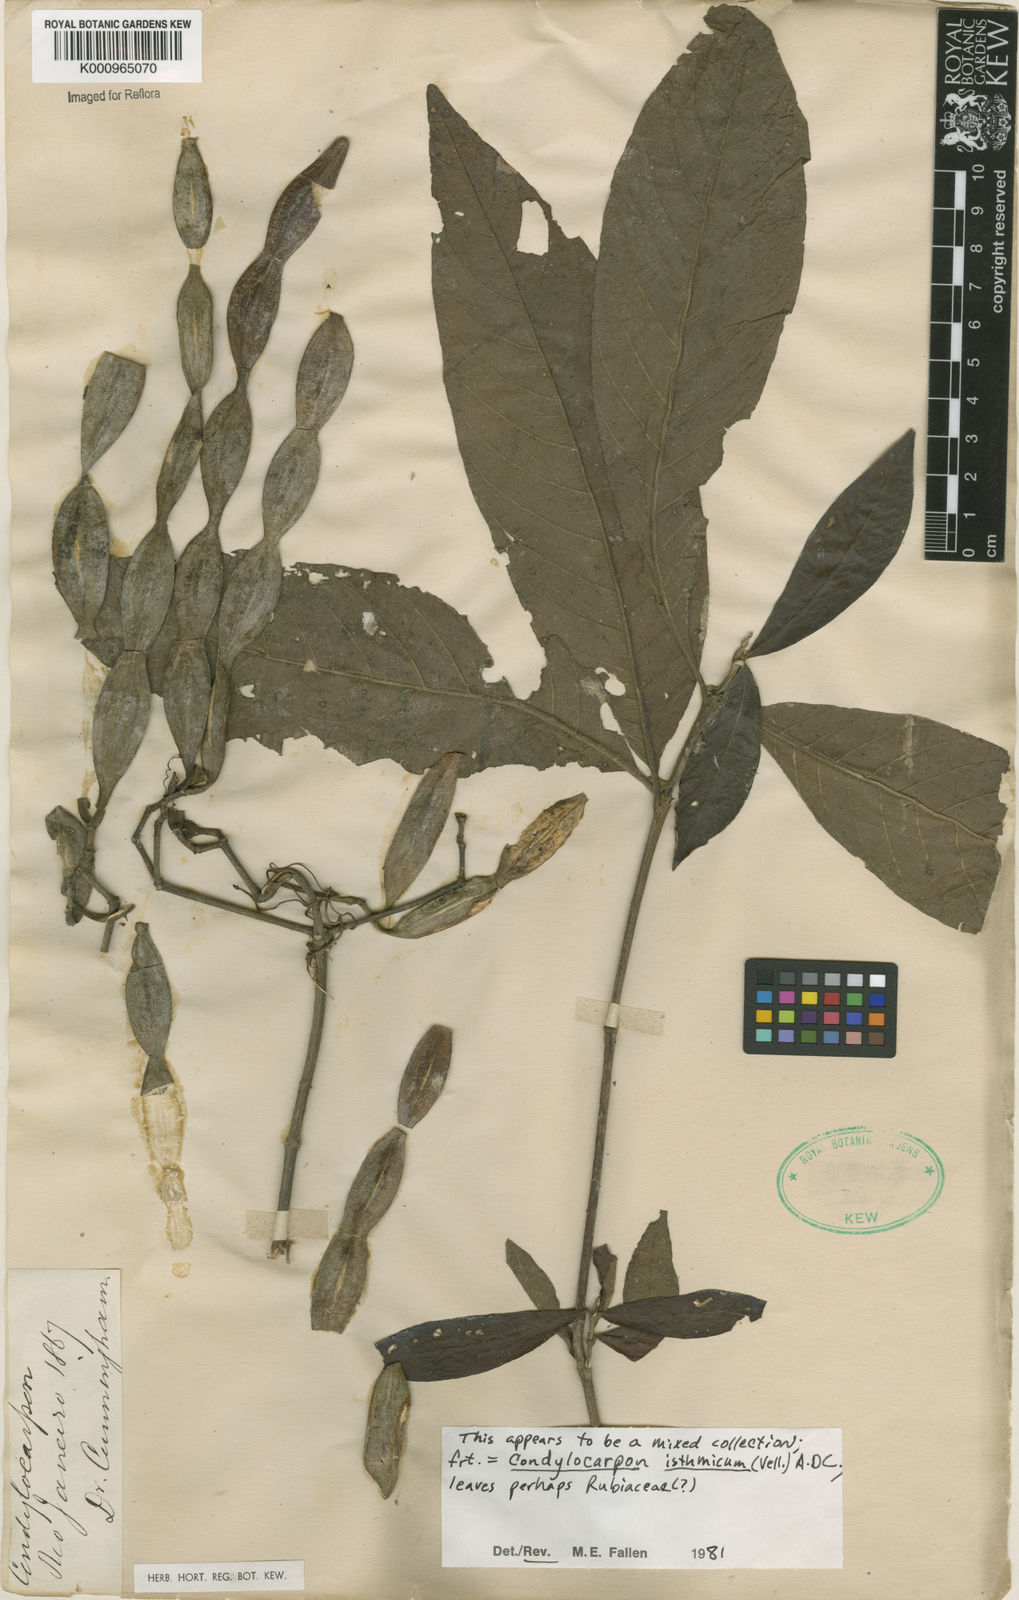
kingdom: Plantae
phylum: Tracheophyta
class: Magnoliopsida
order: Gentianales
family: Apocynaceae
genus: Condylocarpon
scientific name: Condylocarpon isthmicum
